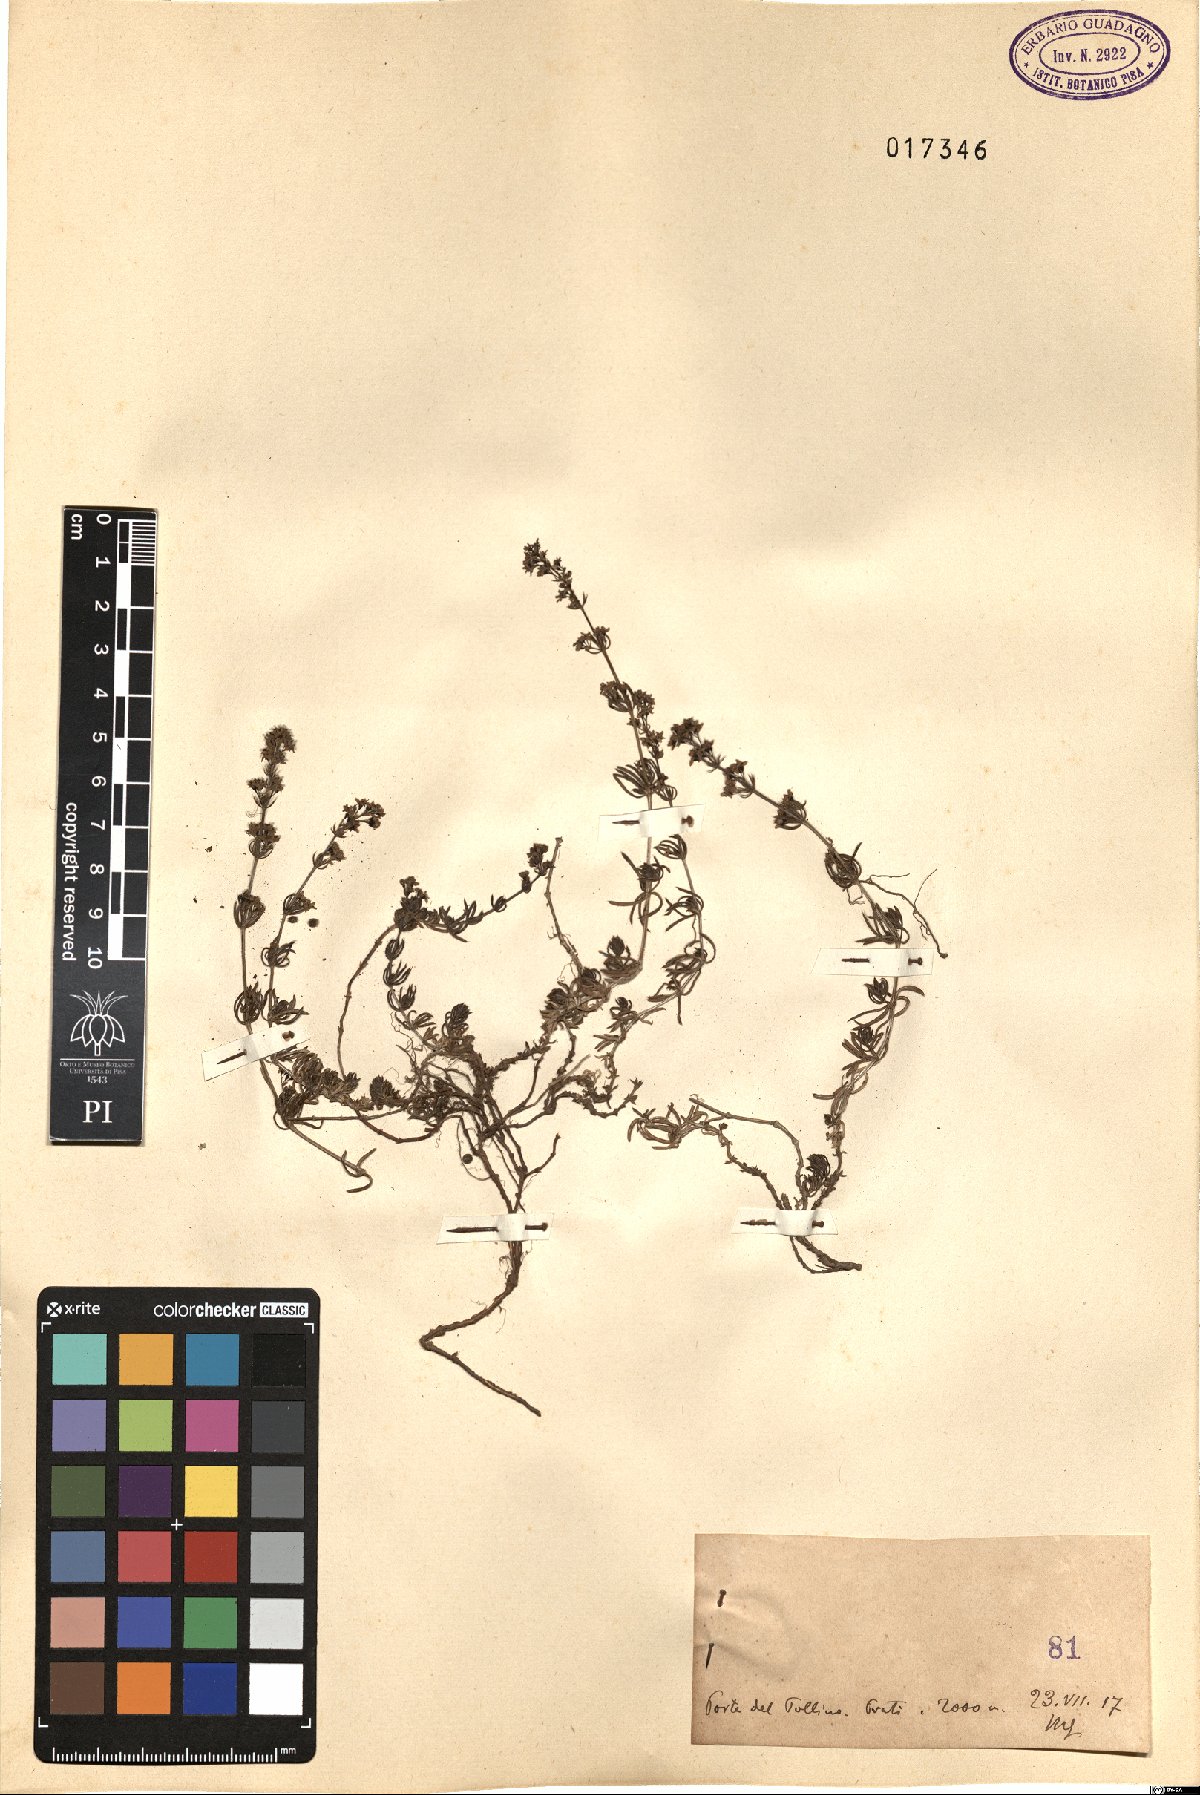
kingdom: Plantae
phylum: Tracheophyta
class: Magnoliopsida
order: Gentianales
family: Rubiaceae
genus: Galium
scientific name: Galium
